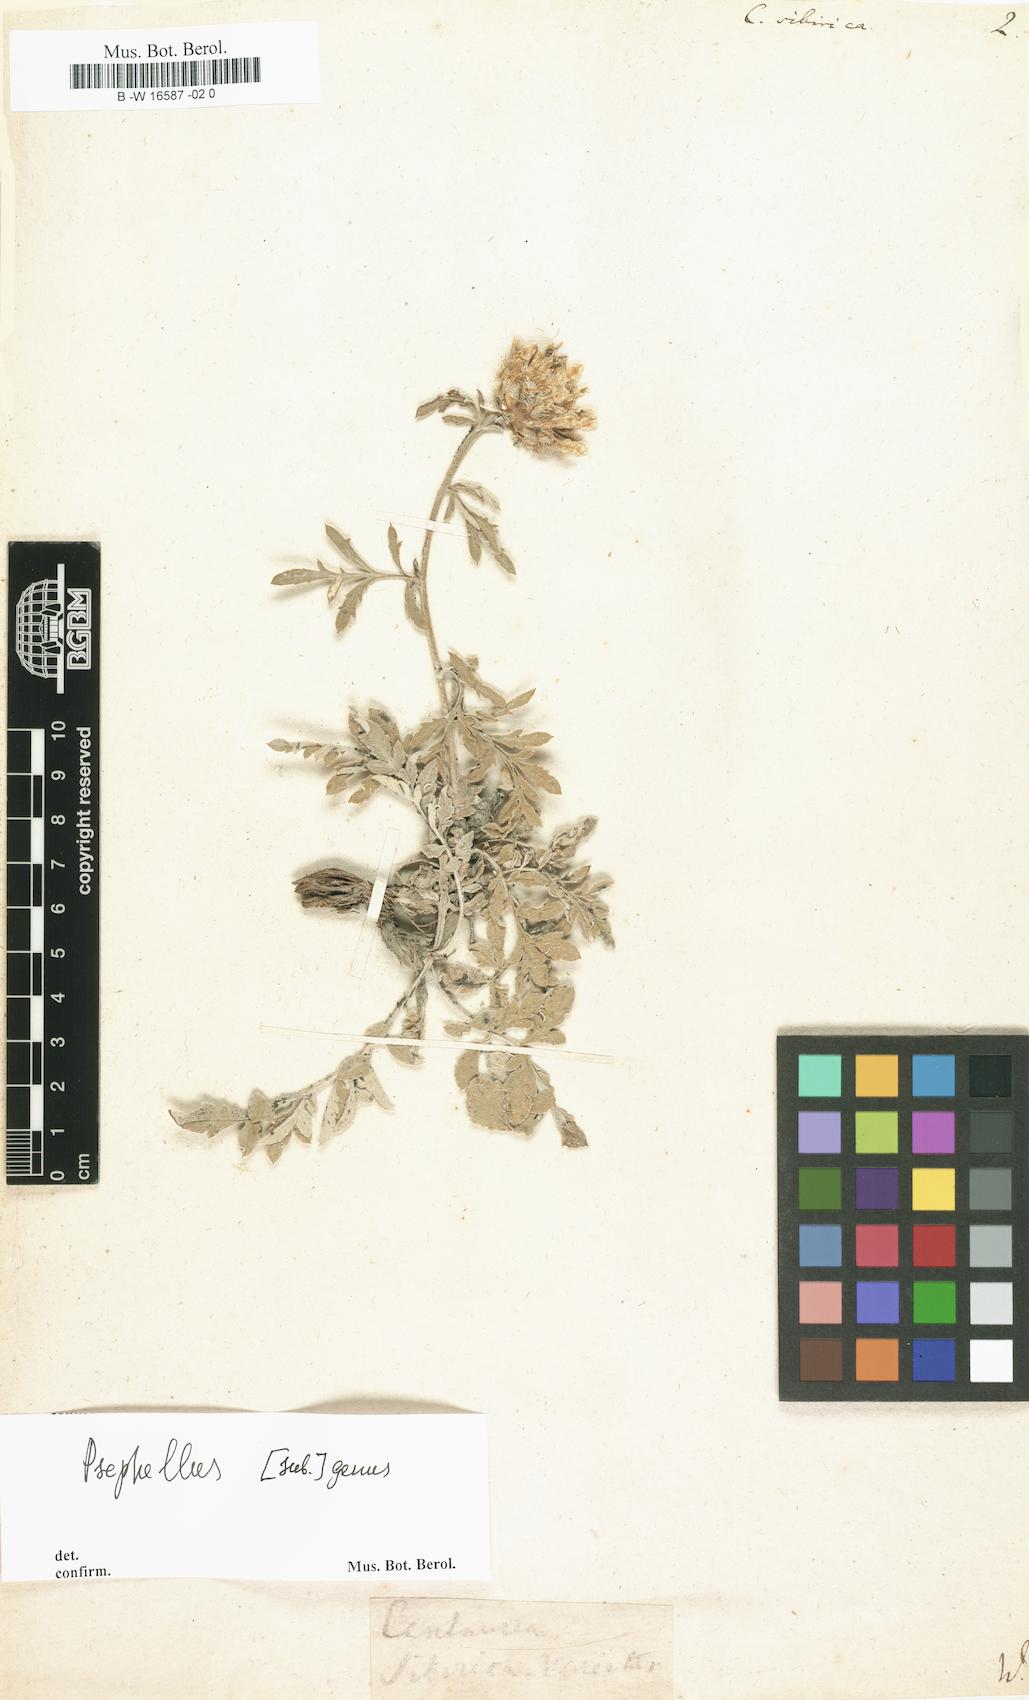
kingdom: Plantae
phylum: Tracheophyta
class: Magnoliopsida
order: Asterales
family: Asteraceae
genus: Psephellus
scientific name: Psephellus sibiricus
